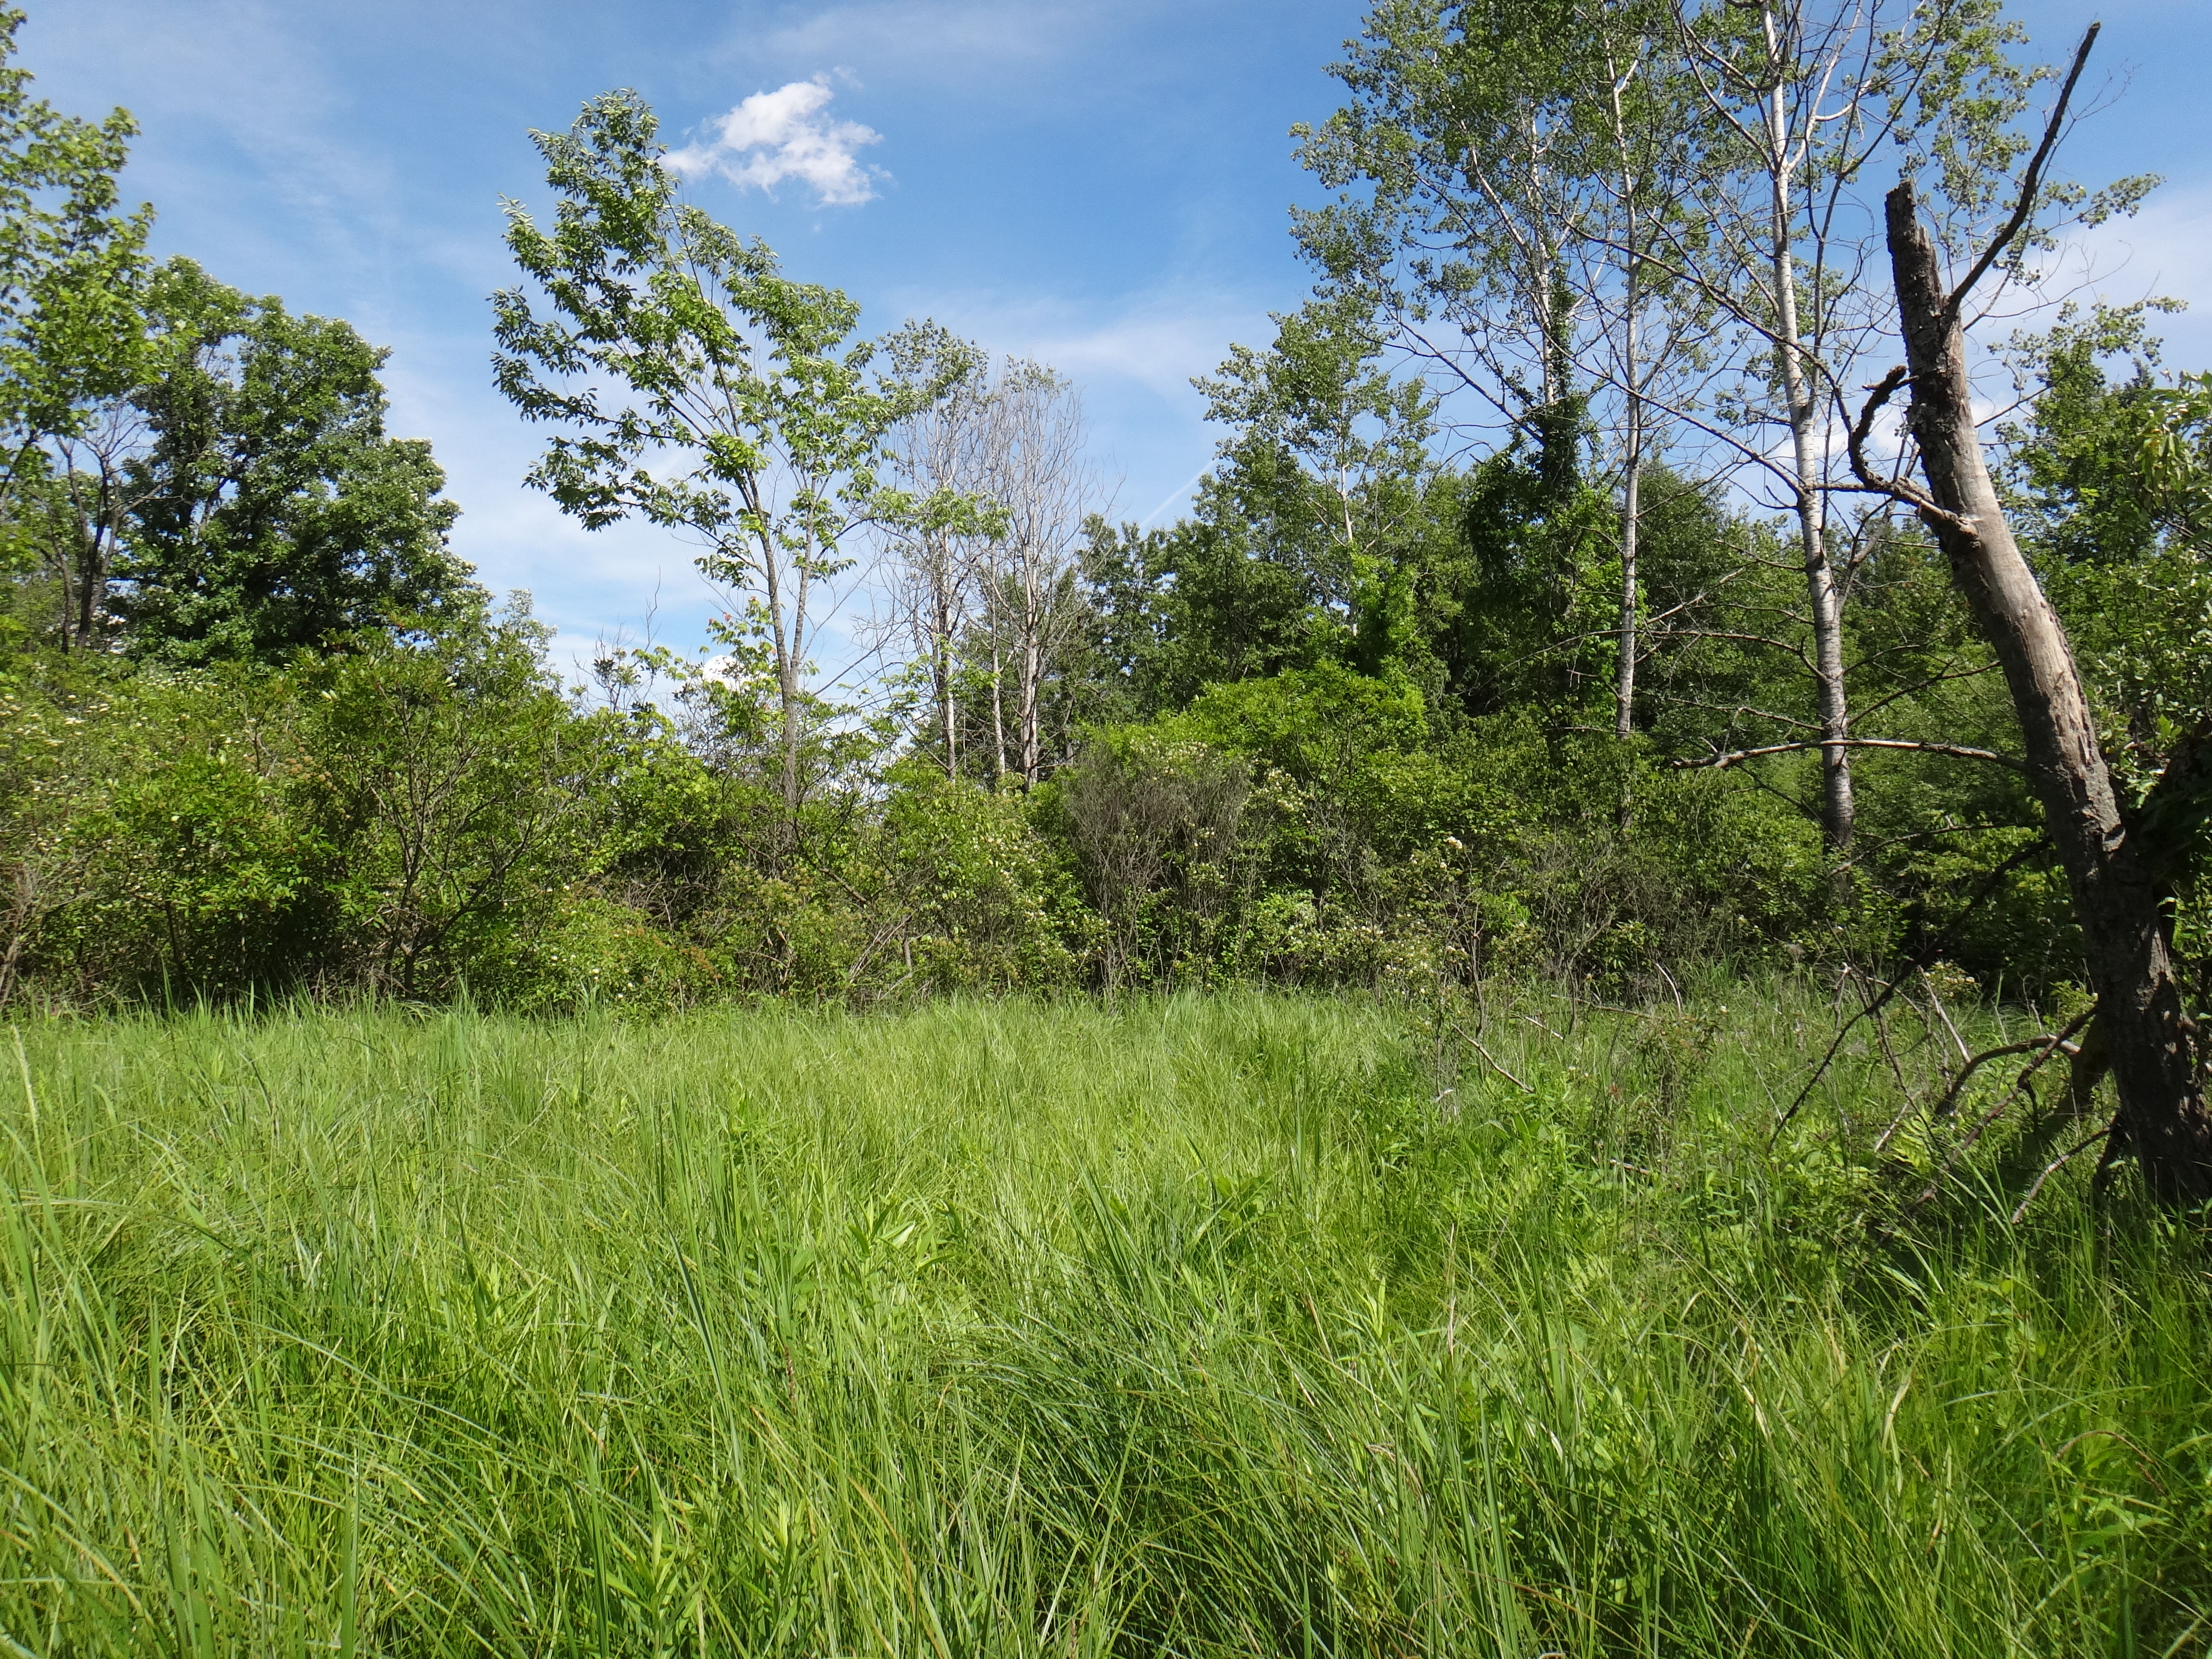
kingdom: Plantae
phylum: Tracheophyta
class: Magnoliopsida
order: Asterales
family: Asteraceae
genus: Eutrochium
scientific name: Eutrochium maculatum
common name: Spotted joe pye weed
